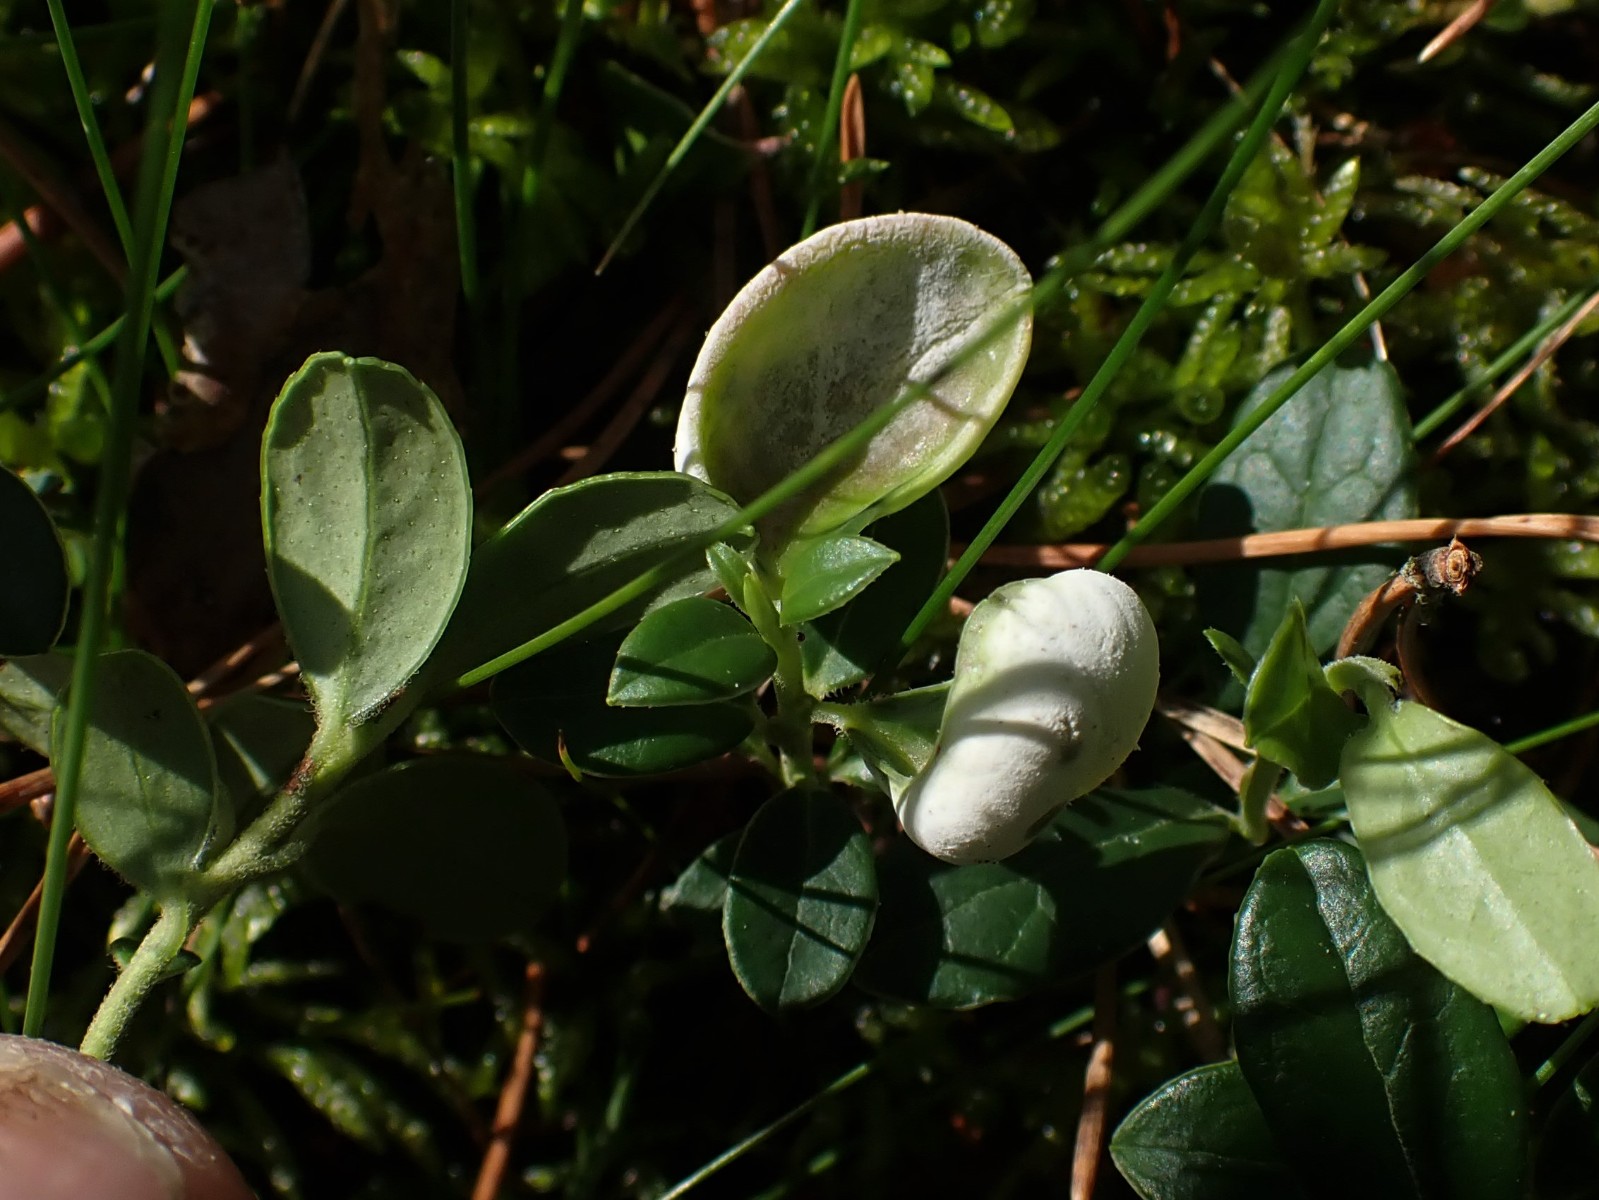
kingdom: Fungi
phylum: Basidiomycota
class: Exobasidiomycetes
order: Exobasidiales
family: Exobasidiaceae
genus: Exobasidium
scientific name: Exobasidium vaccinii
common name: tyttebærblad-bøllesvamp
